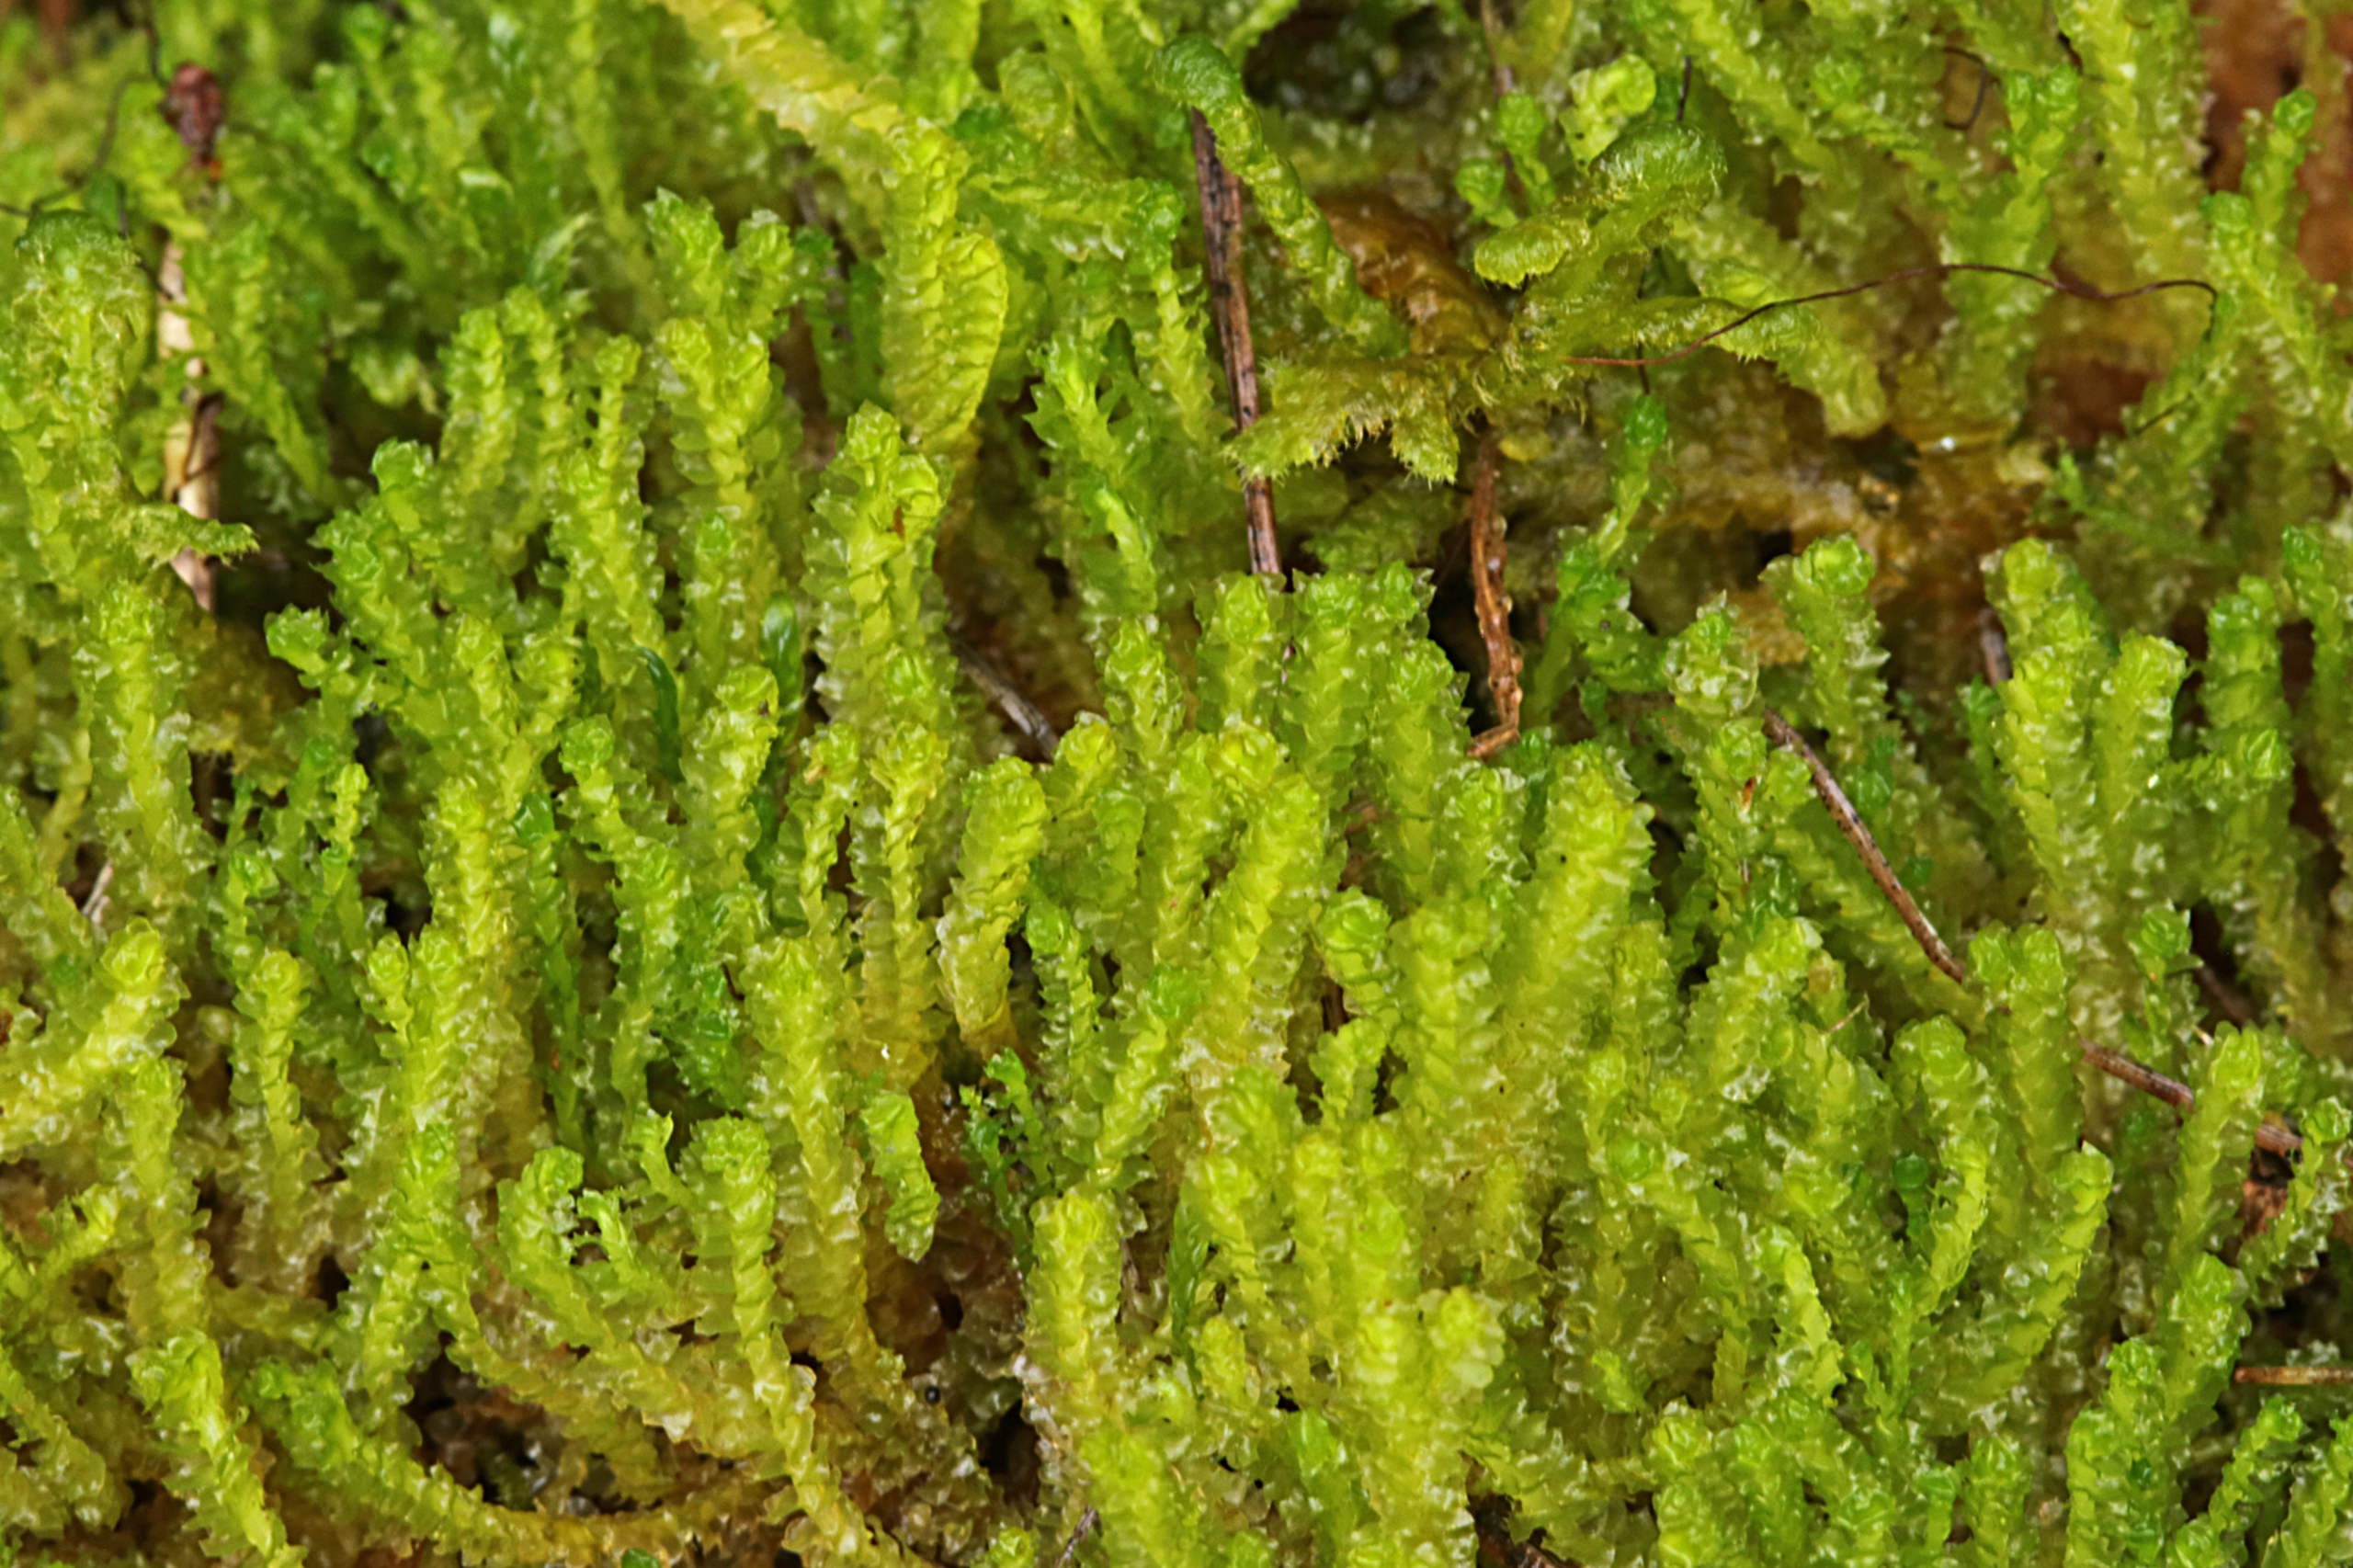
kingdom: Plantae
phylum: Marchantiophyta
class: Jungermanniopsida
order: Jungermanniales
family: Anastrophyllaceae
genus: Barbilophozia
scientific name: Barbilophozia hatcheri
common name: Spidsfliget flerfligmos
